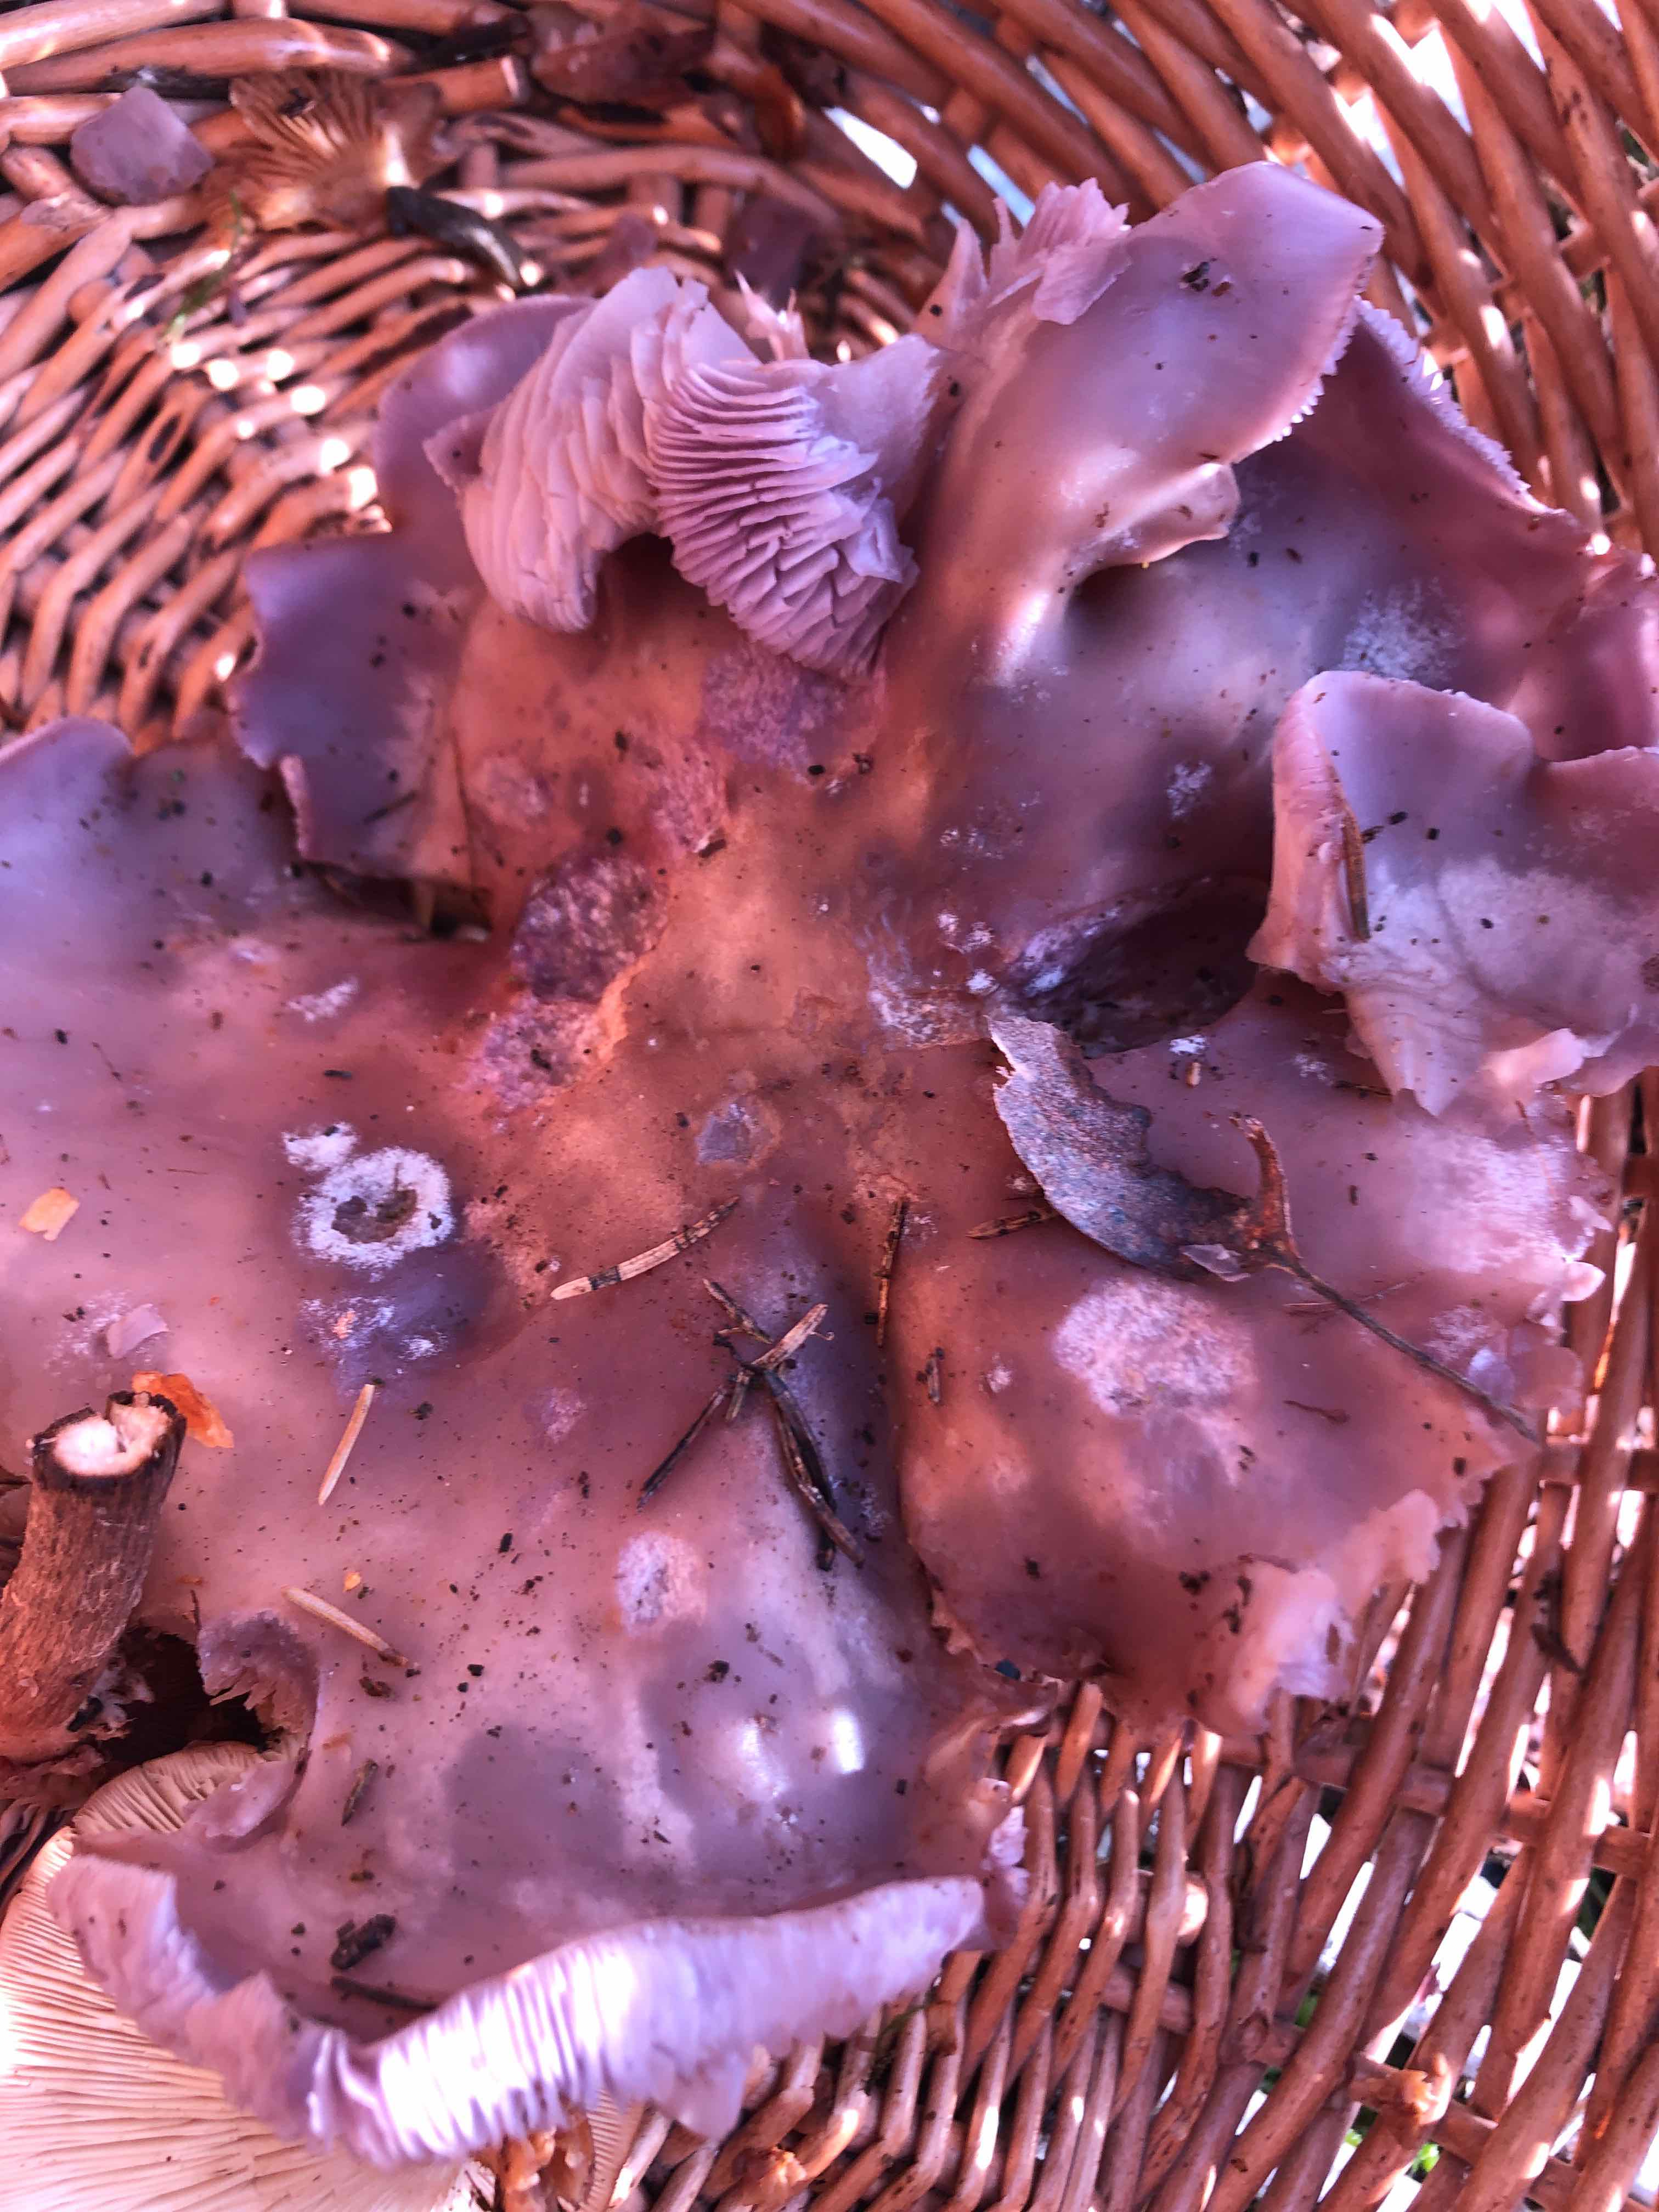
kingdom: Fungi
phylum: Basidiomycota
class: Agaricomycetes
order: Agaricales
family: Tricholomataceae
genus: Lepista
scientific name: Lepista nuda
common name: violet hekseringshat
